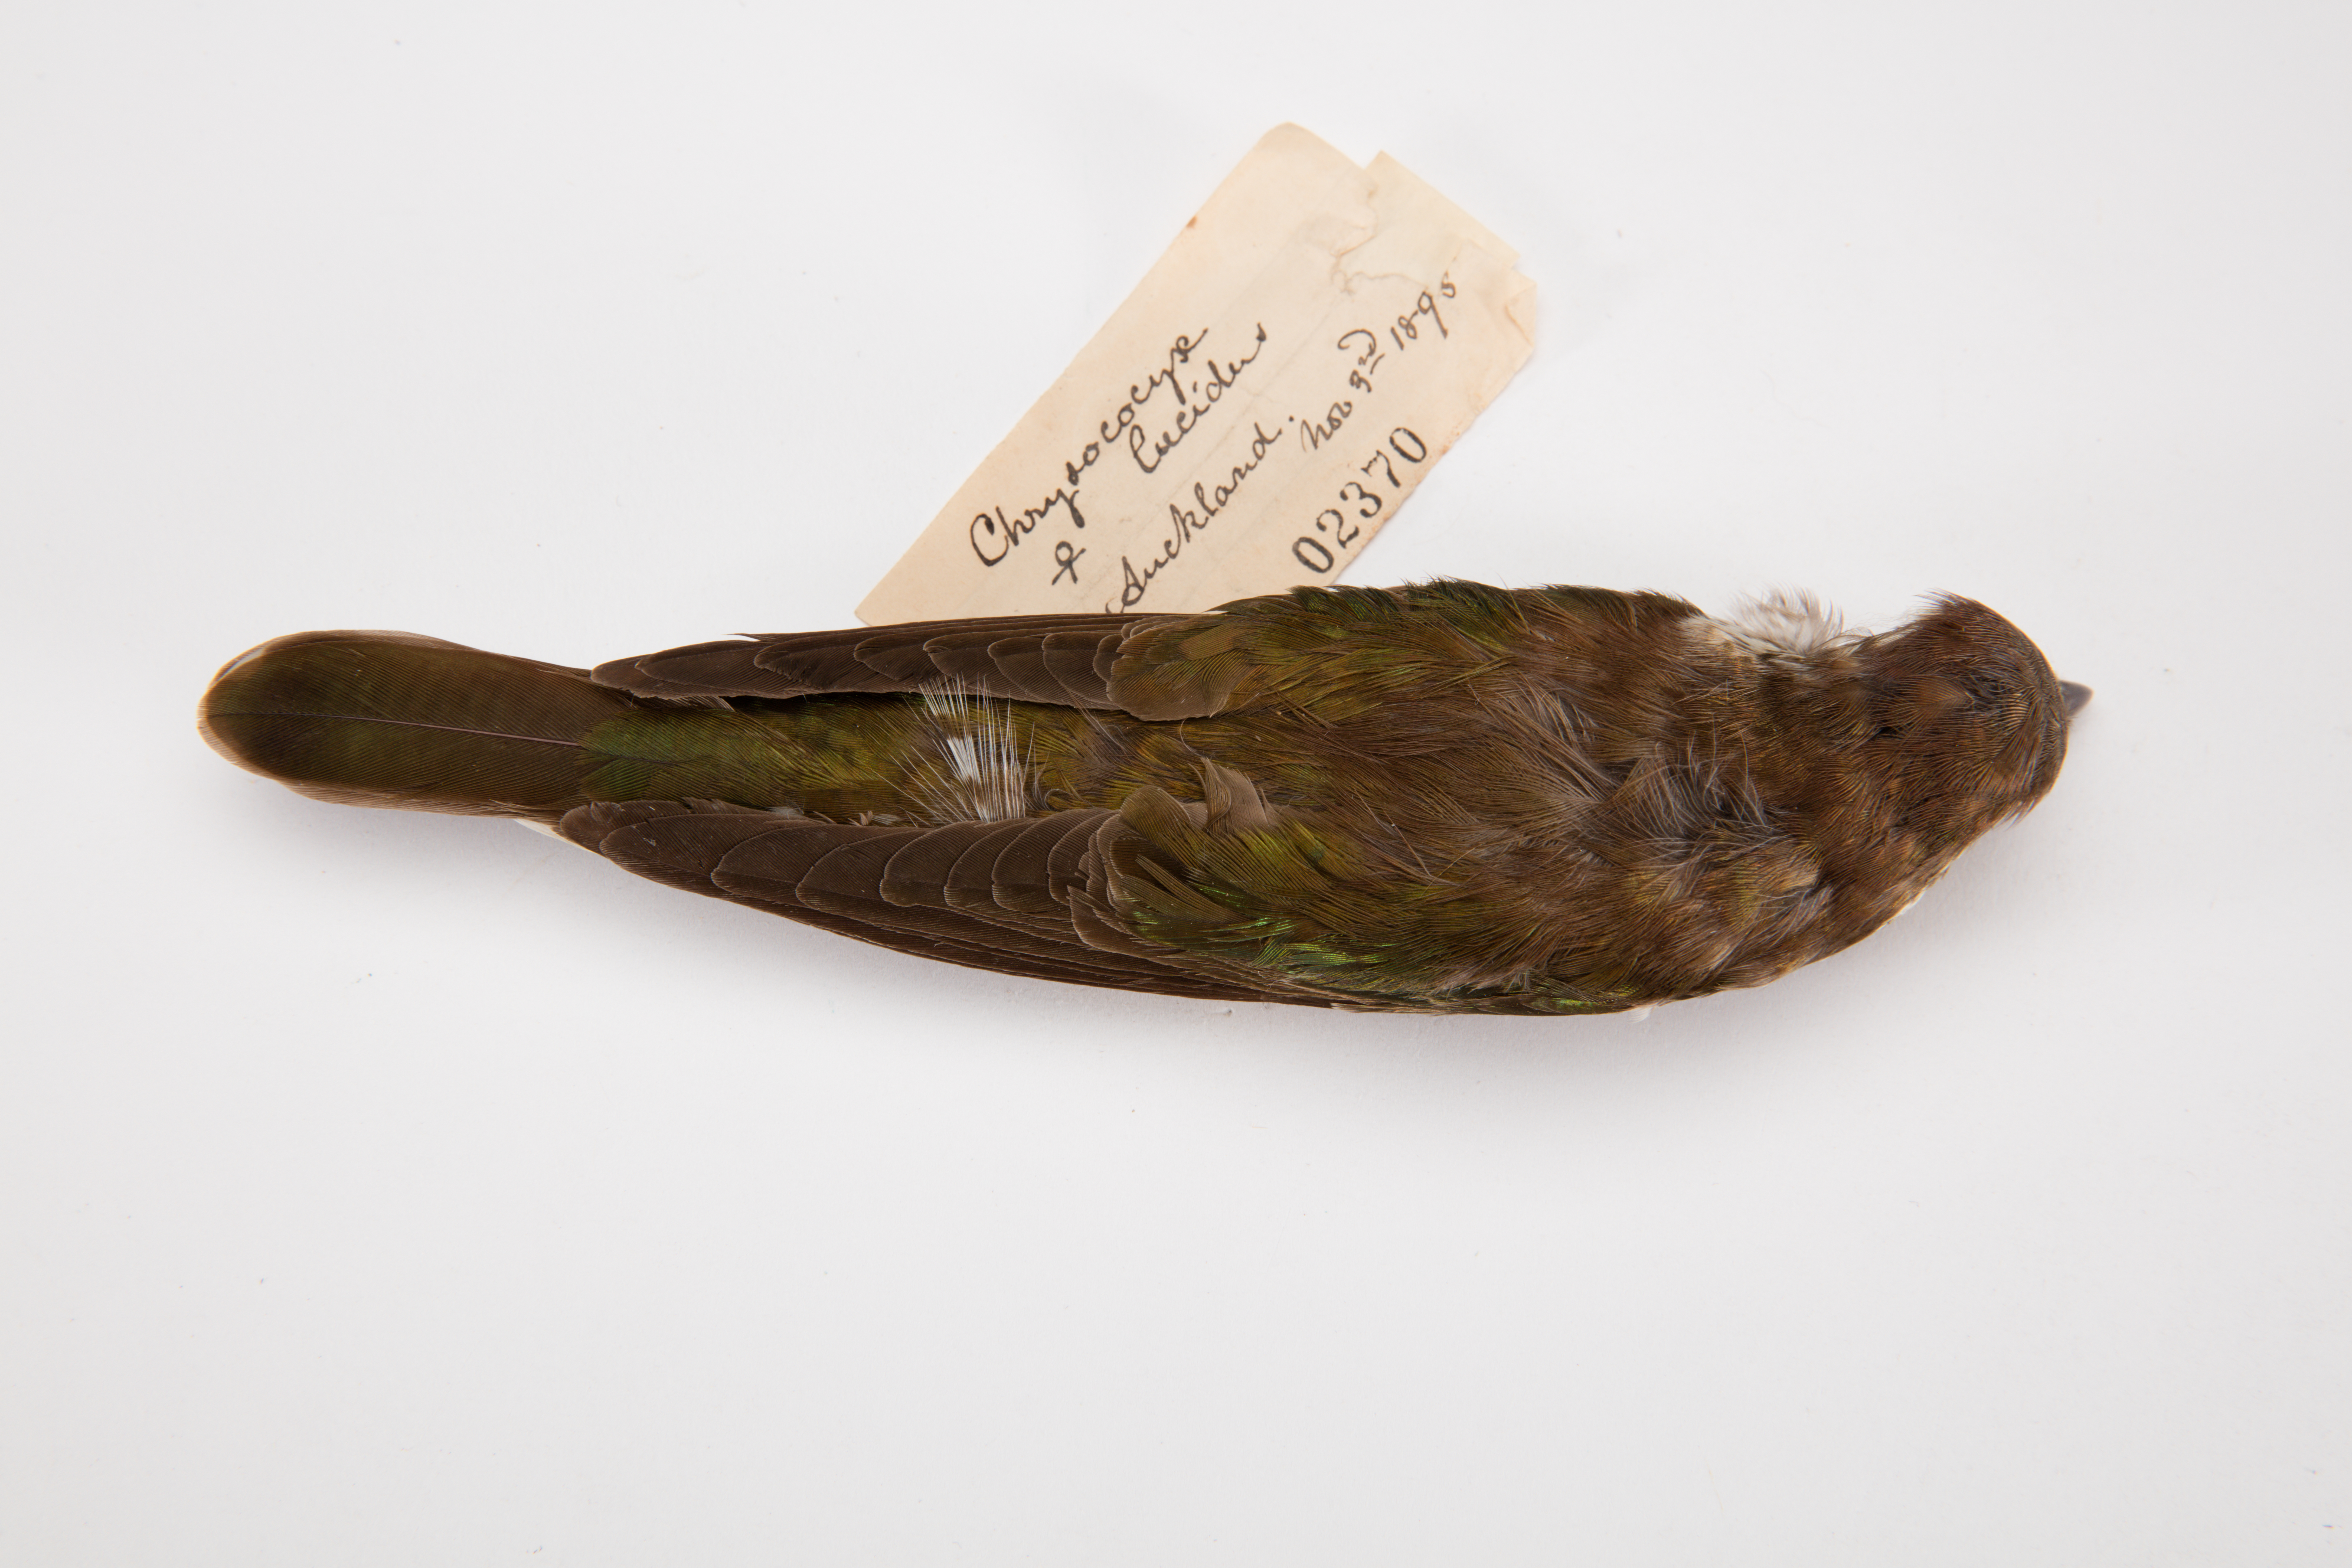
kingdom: Animalia
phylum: Chordata
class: Aves
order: Cuculiformes
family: Cuculidae
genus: Chrysococcyx
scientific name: Chrysococcyx lucidus
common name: Shining bronze cuckoo
